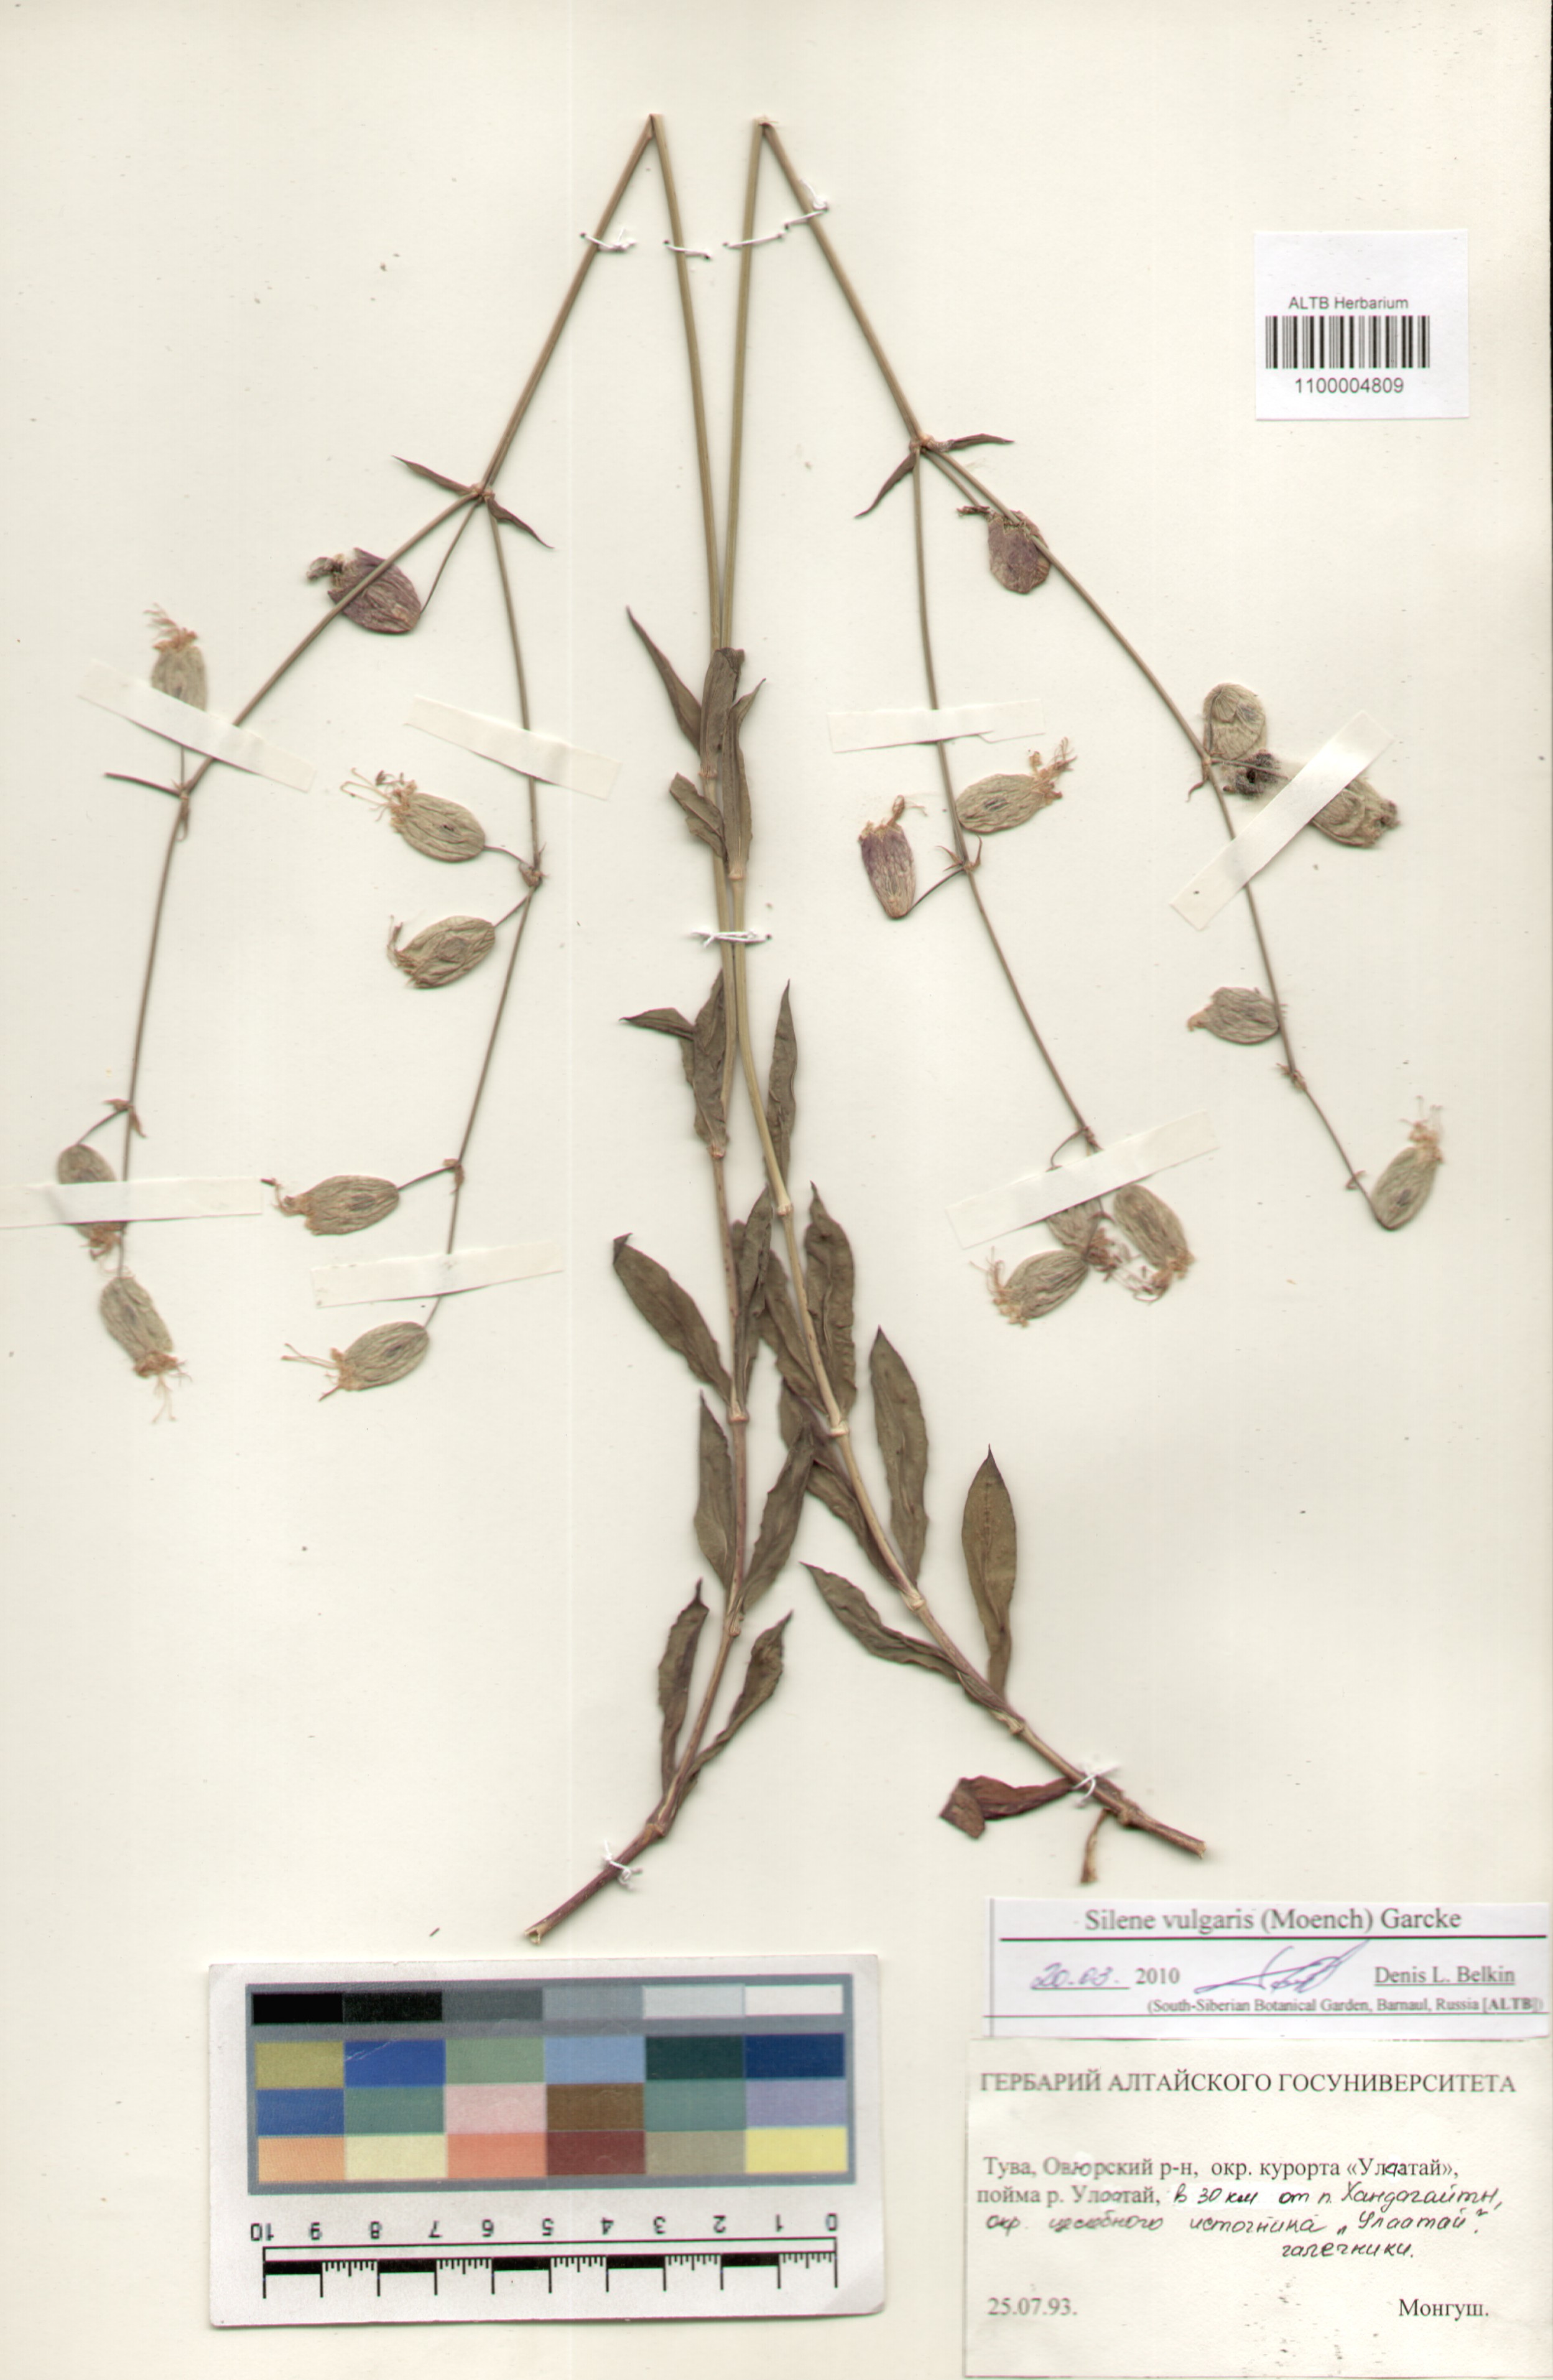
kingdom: Plantae
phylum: Tracheophyta
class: Magnoliopsida
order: Caryophyllales
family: Caryophyllaceae
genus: Silene
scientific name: Silene vulgaris
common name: Bladder campion
